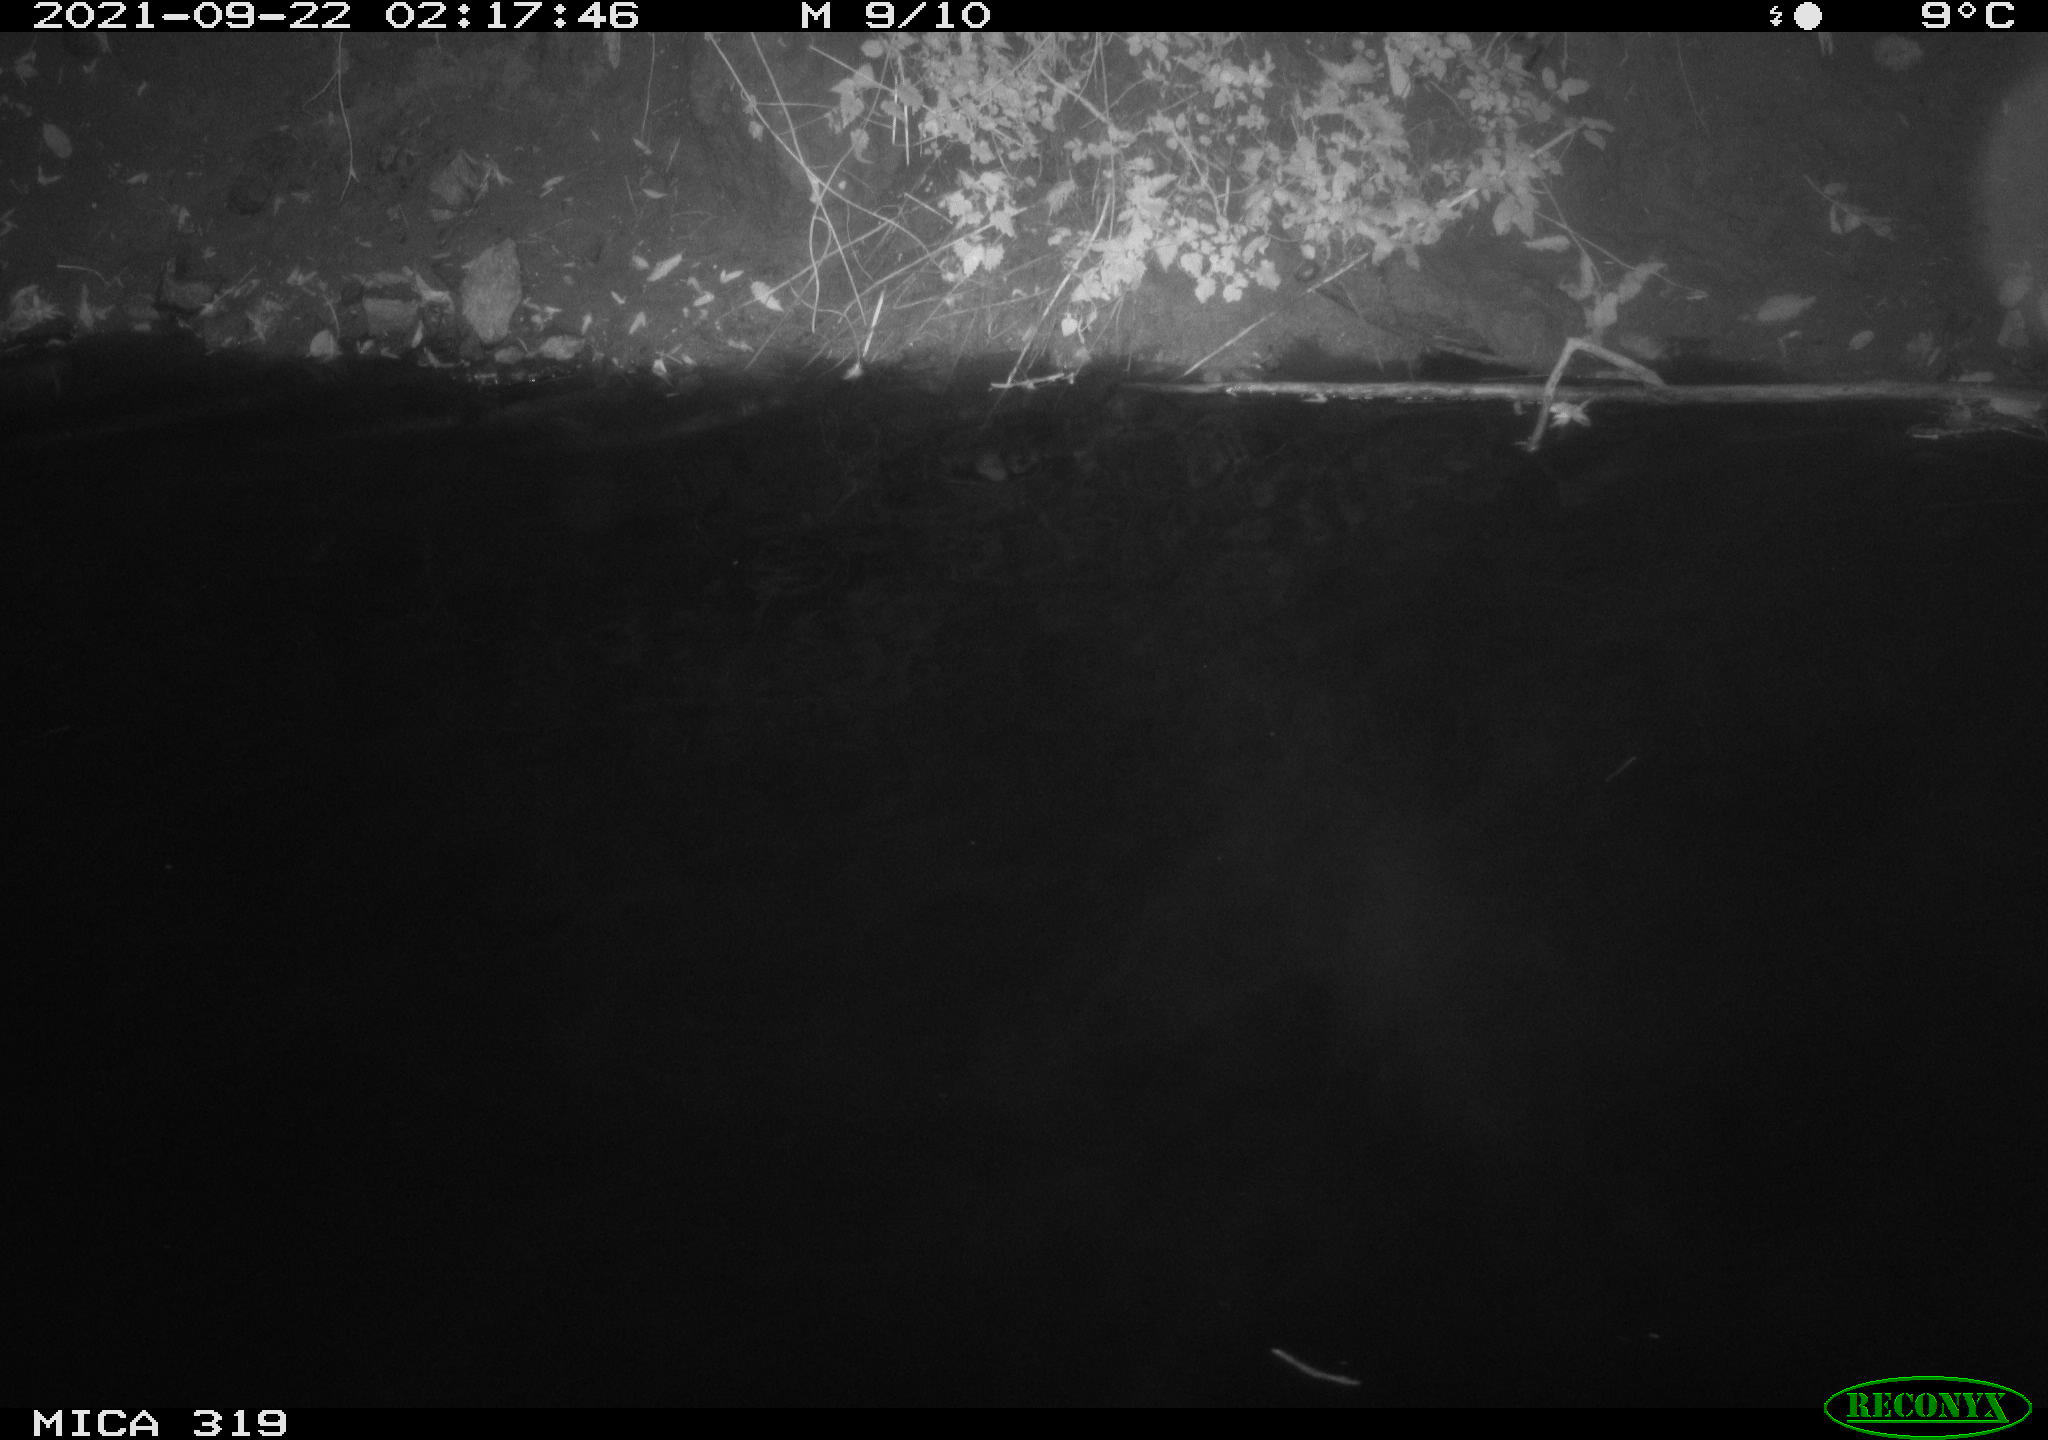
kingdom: Animalia
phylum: Chordata
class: Aves
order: Anseriformes
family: Anatidae
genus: Anas
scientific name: Anas platyrhynchos
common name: Mallard
